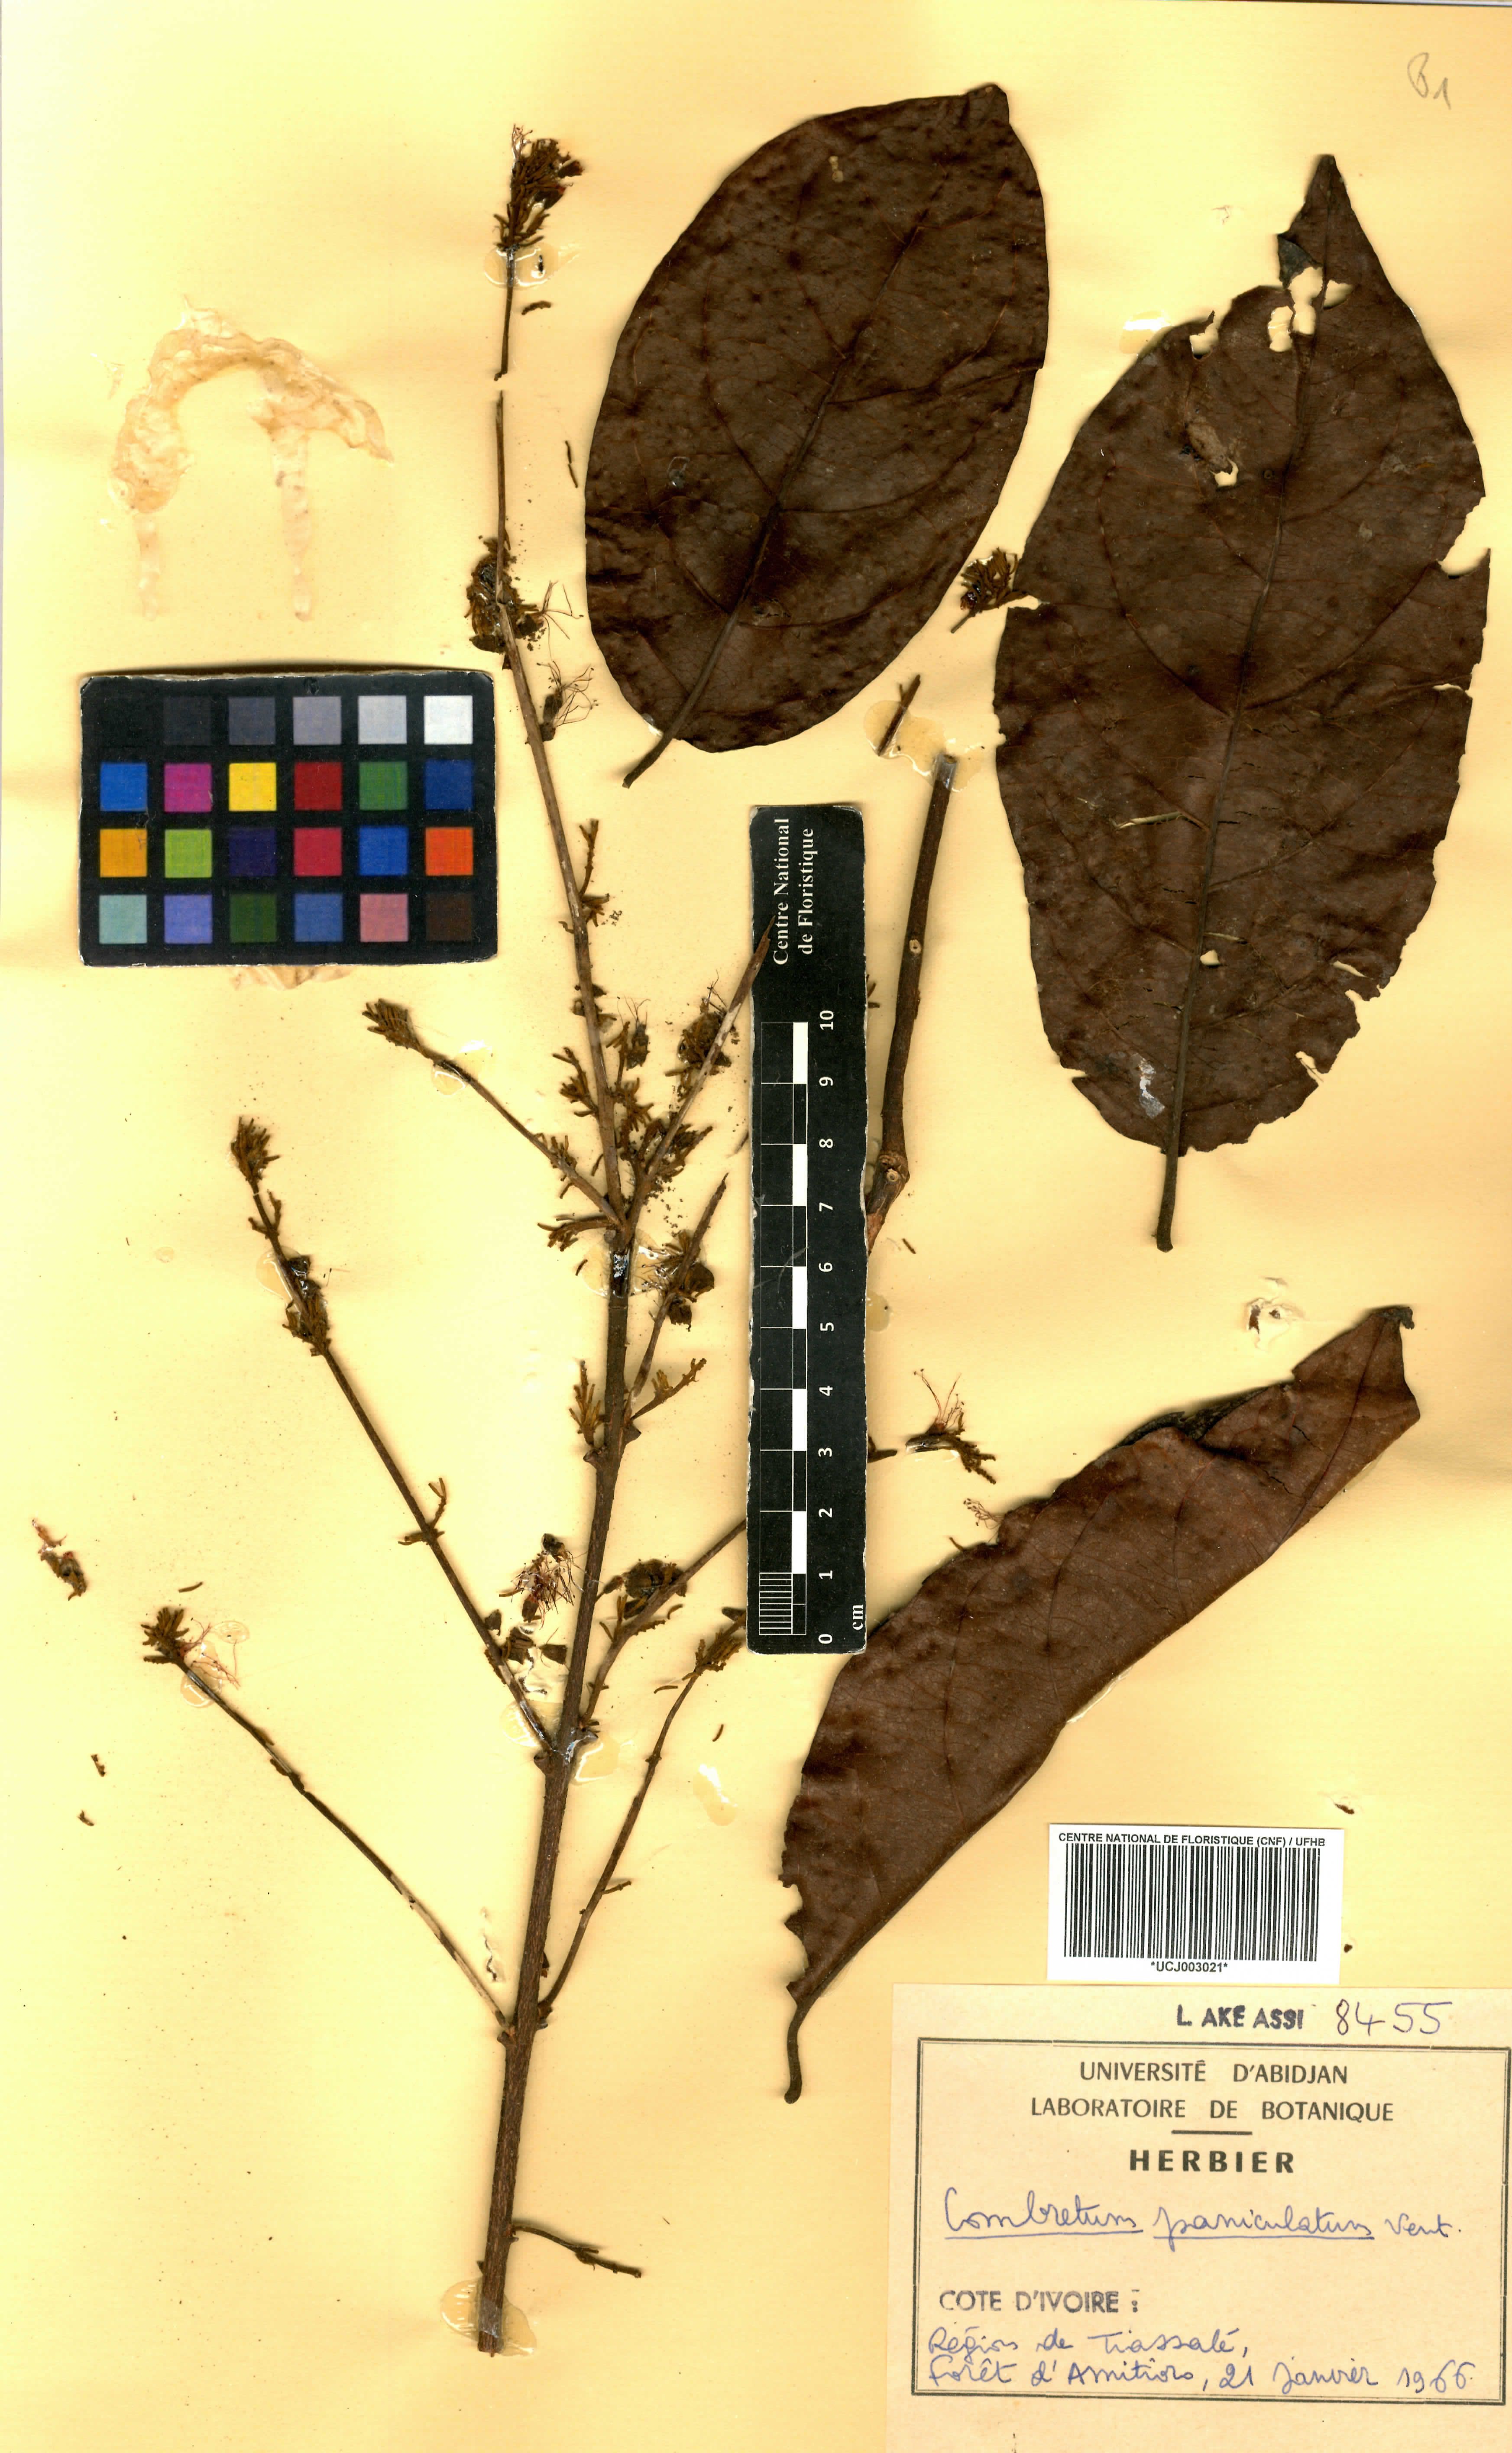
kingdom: Plantae
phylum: Tracheophyta
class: Magnoliopsida
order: Myrtales
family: Combretaceae
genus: Combretum
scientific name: Combretum paniculatum
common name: Fire vine
